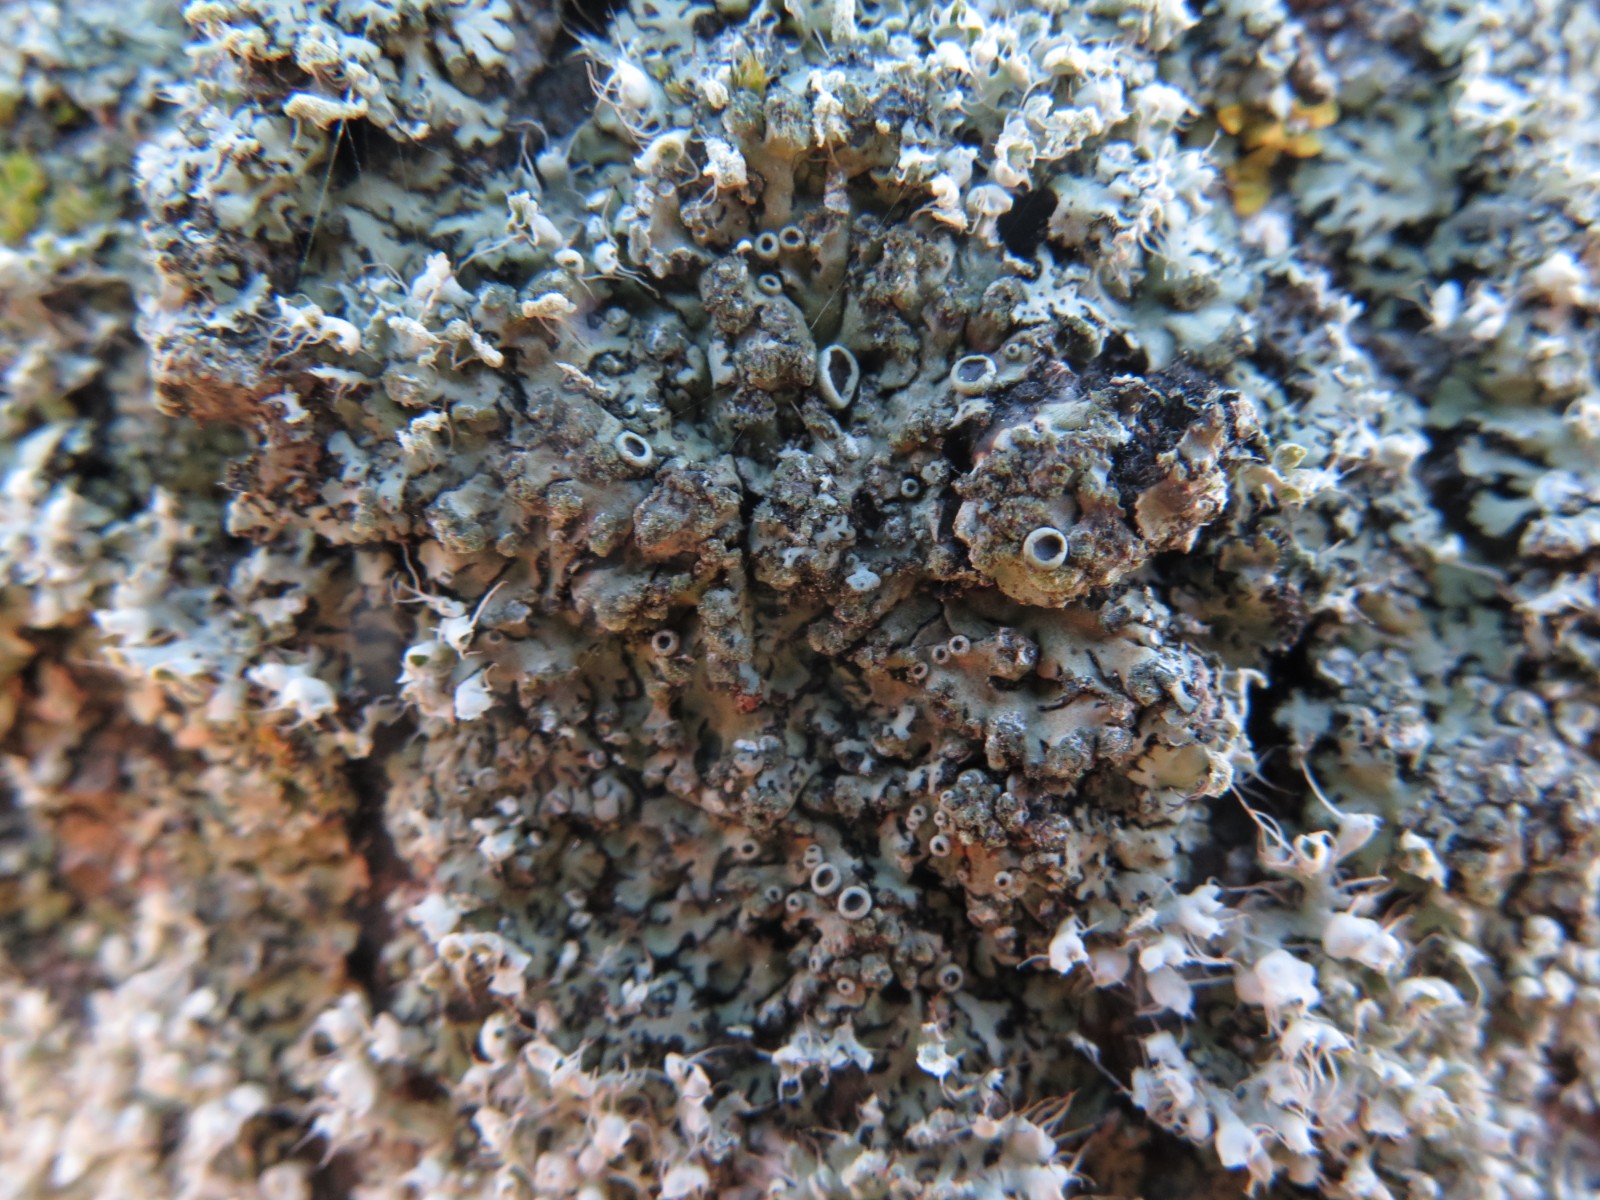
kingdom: Fungi
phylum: Ascomycota
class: Lecanoromycetes
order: Caliciales
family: Physciaceae
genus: Phaeophyscia
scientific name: Phaeophyscia orbicularis
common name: grågrøn rosetlav
